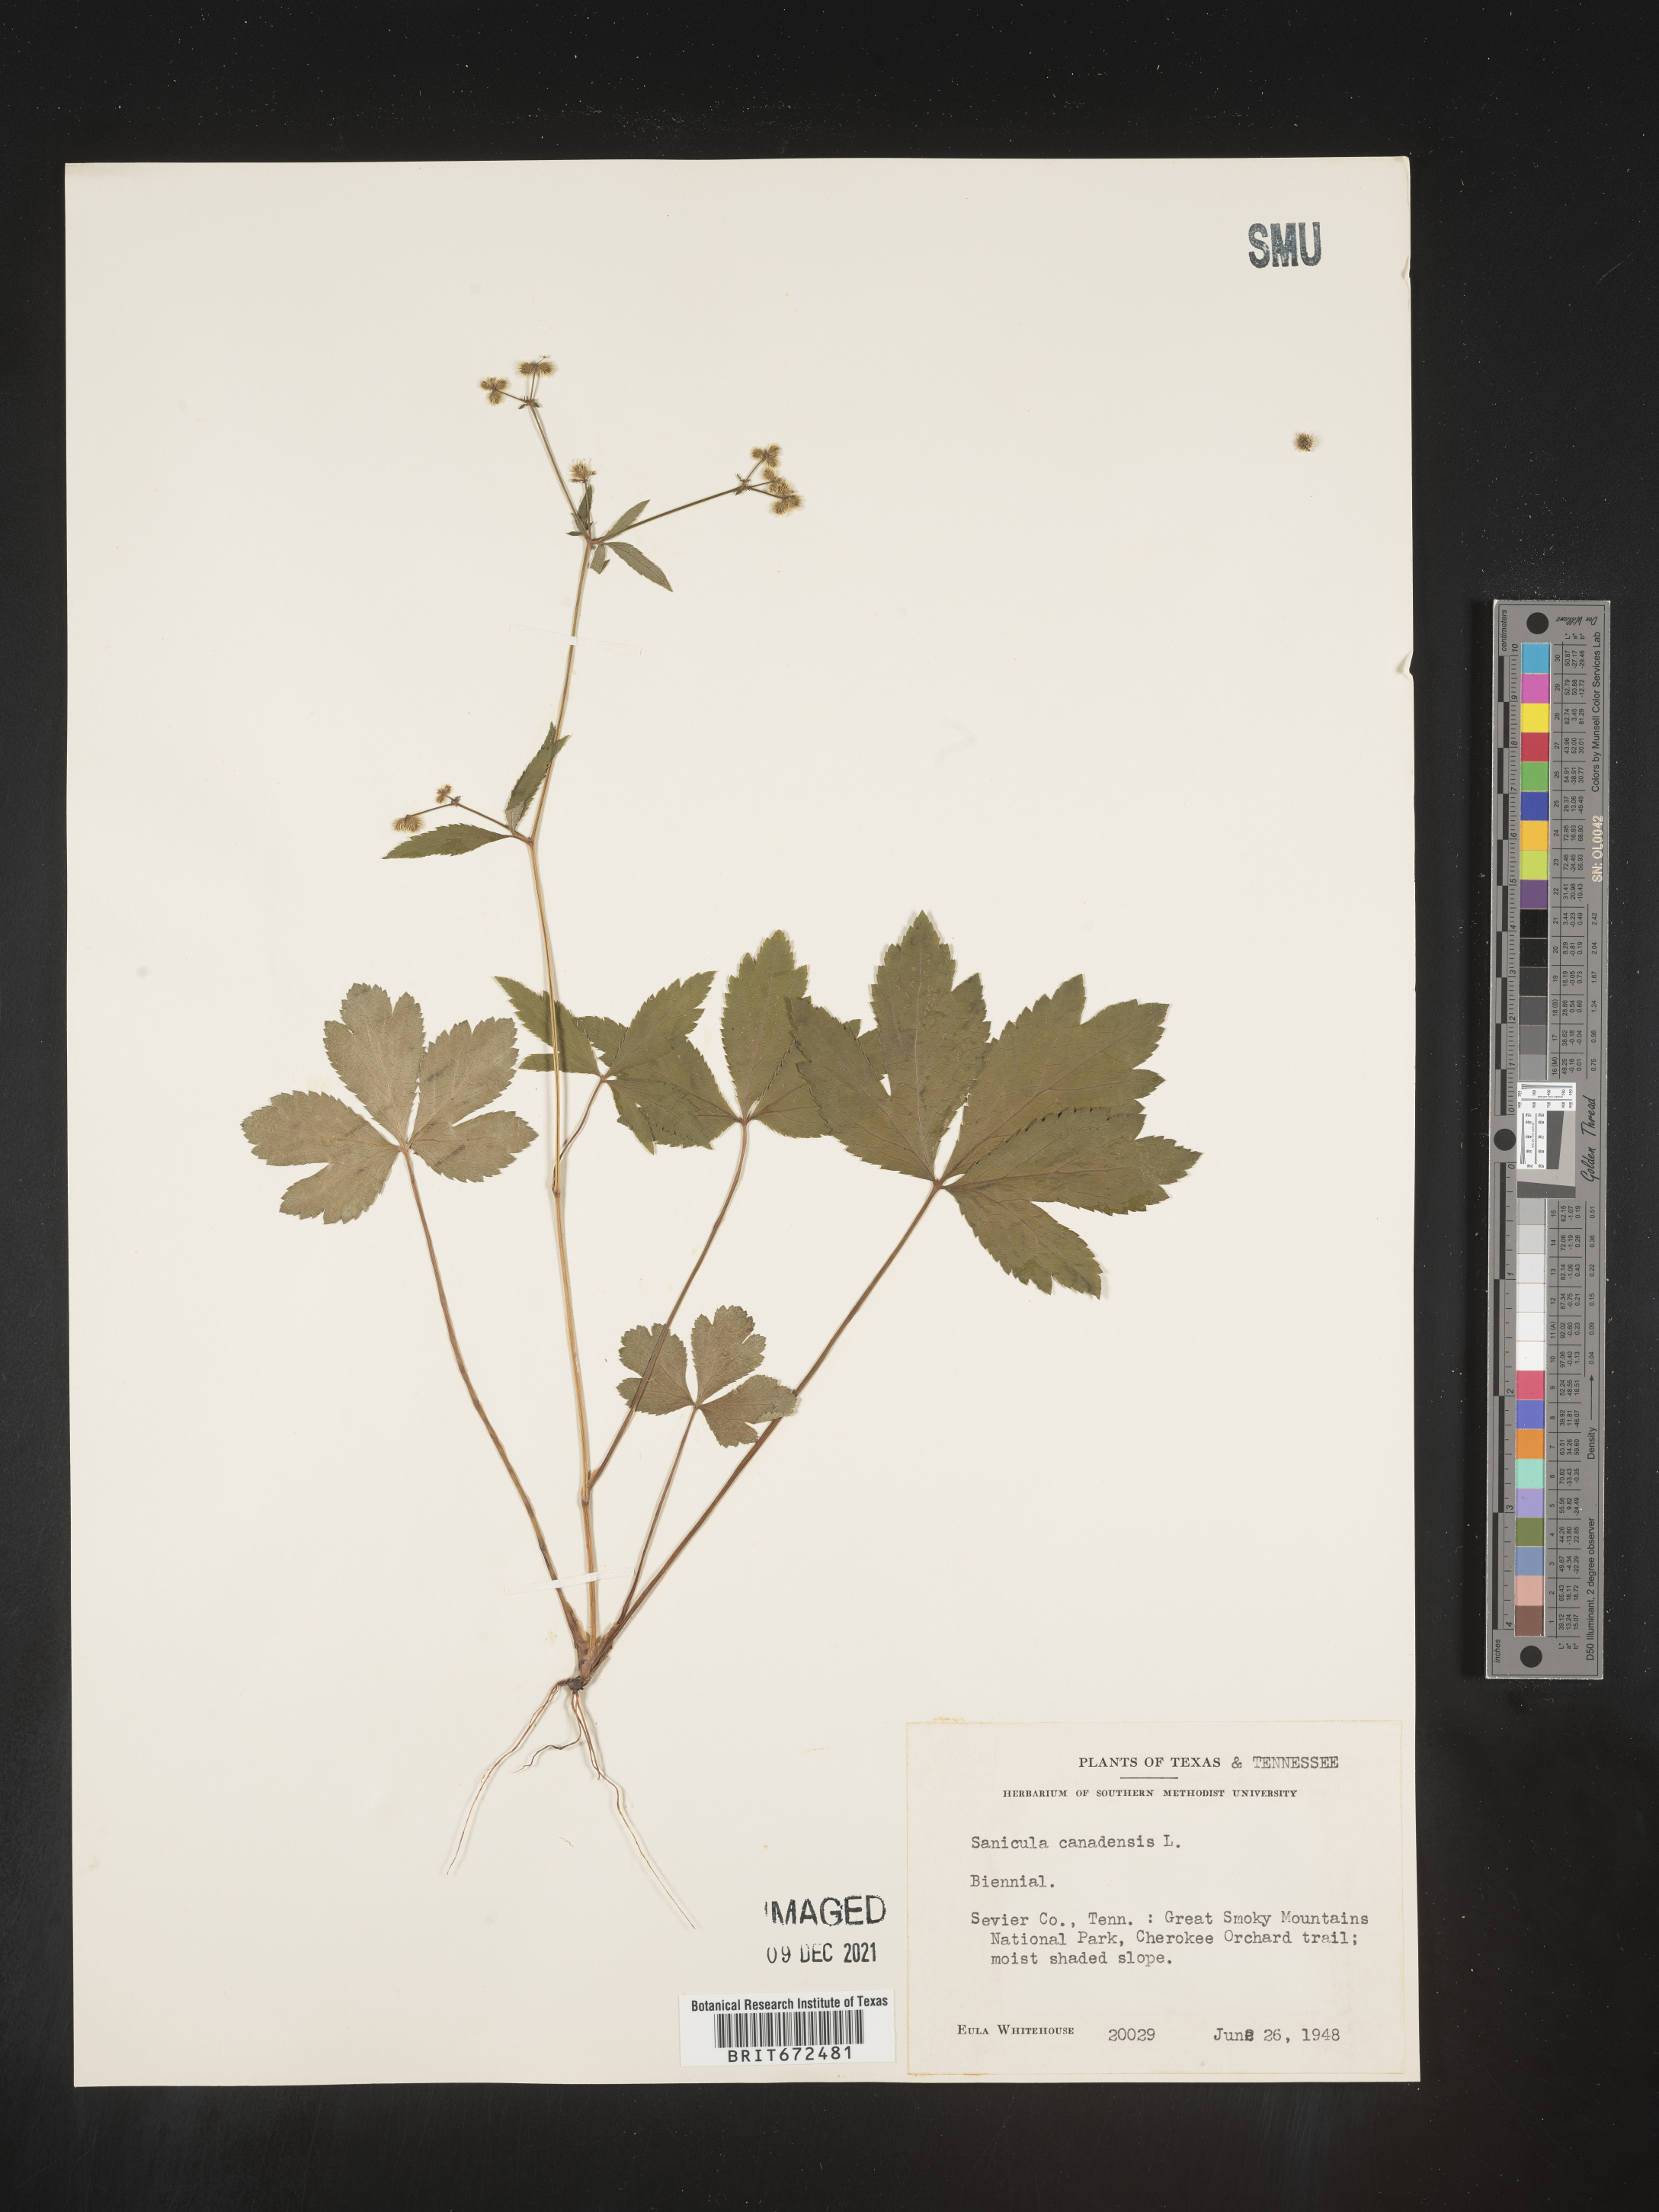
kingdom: Plantae
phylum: Tracheophyta
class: Magnoliopsida
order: Apiales
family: Apiaceae
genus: Sanicula
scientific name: Sanicula canadensis
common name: Canada sanicle
